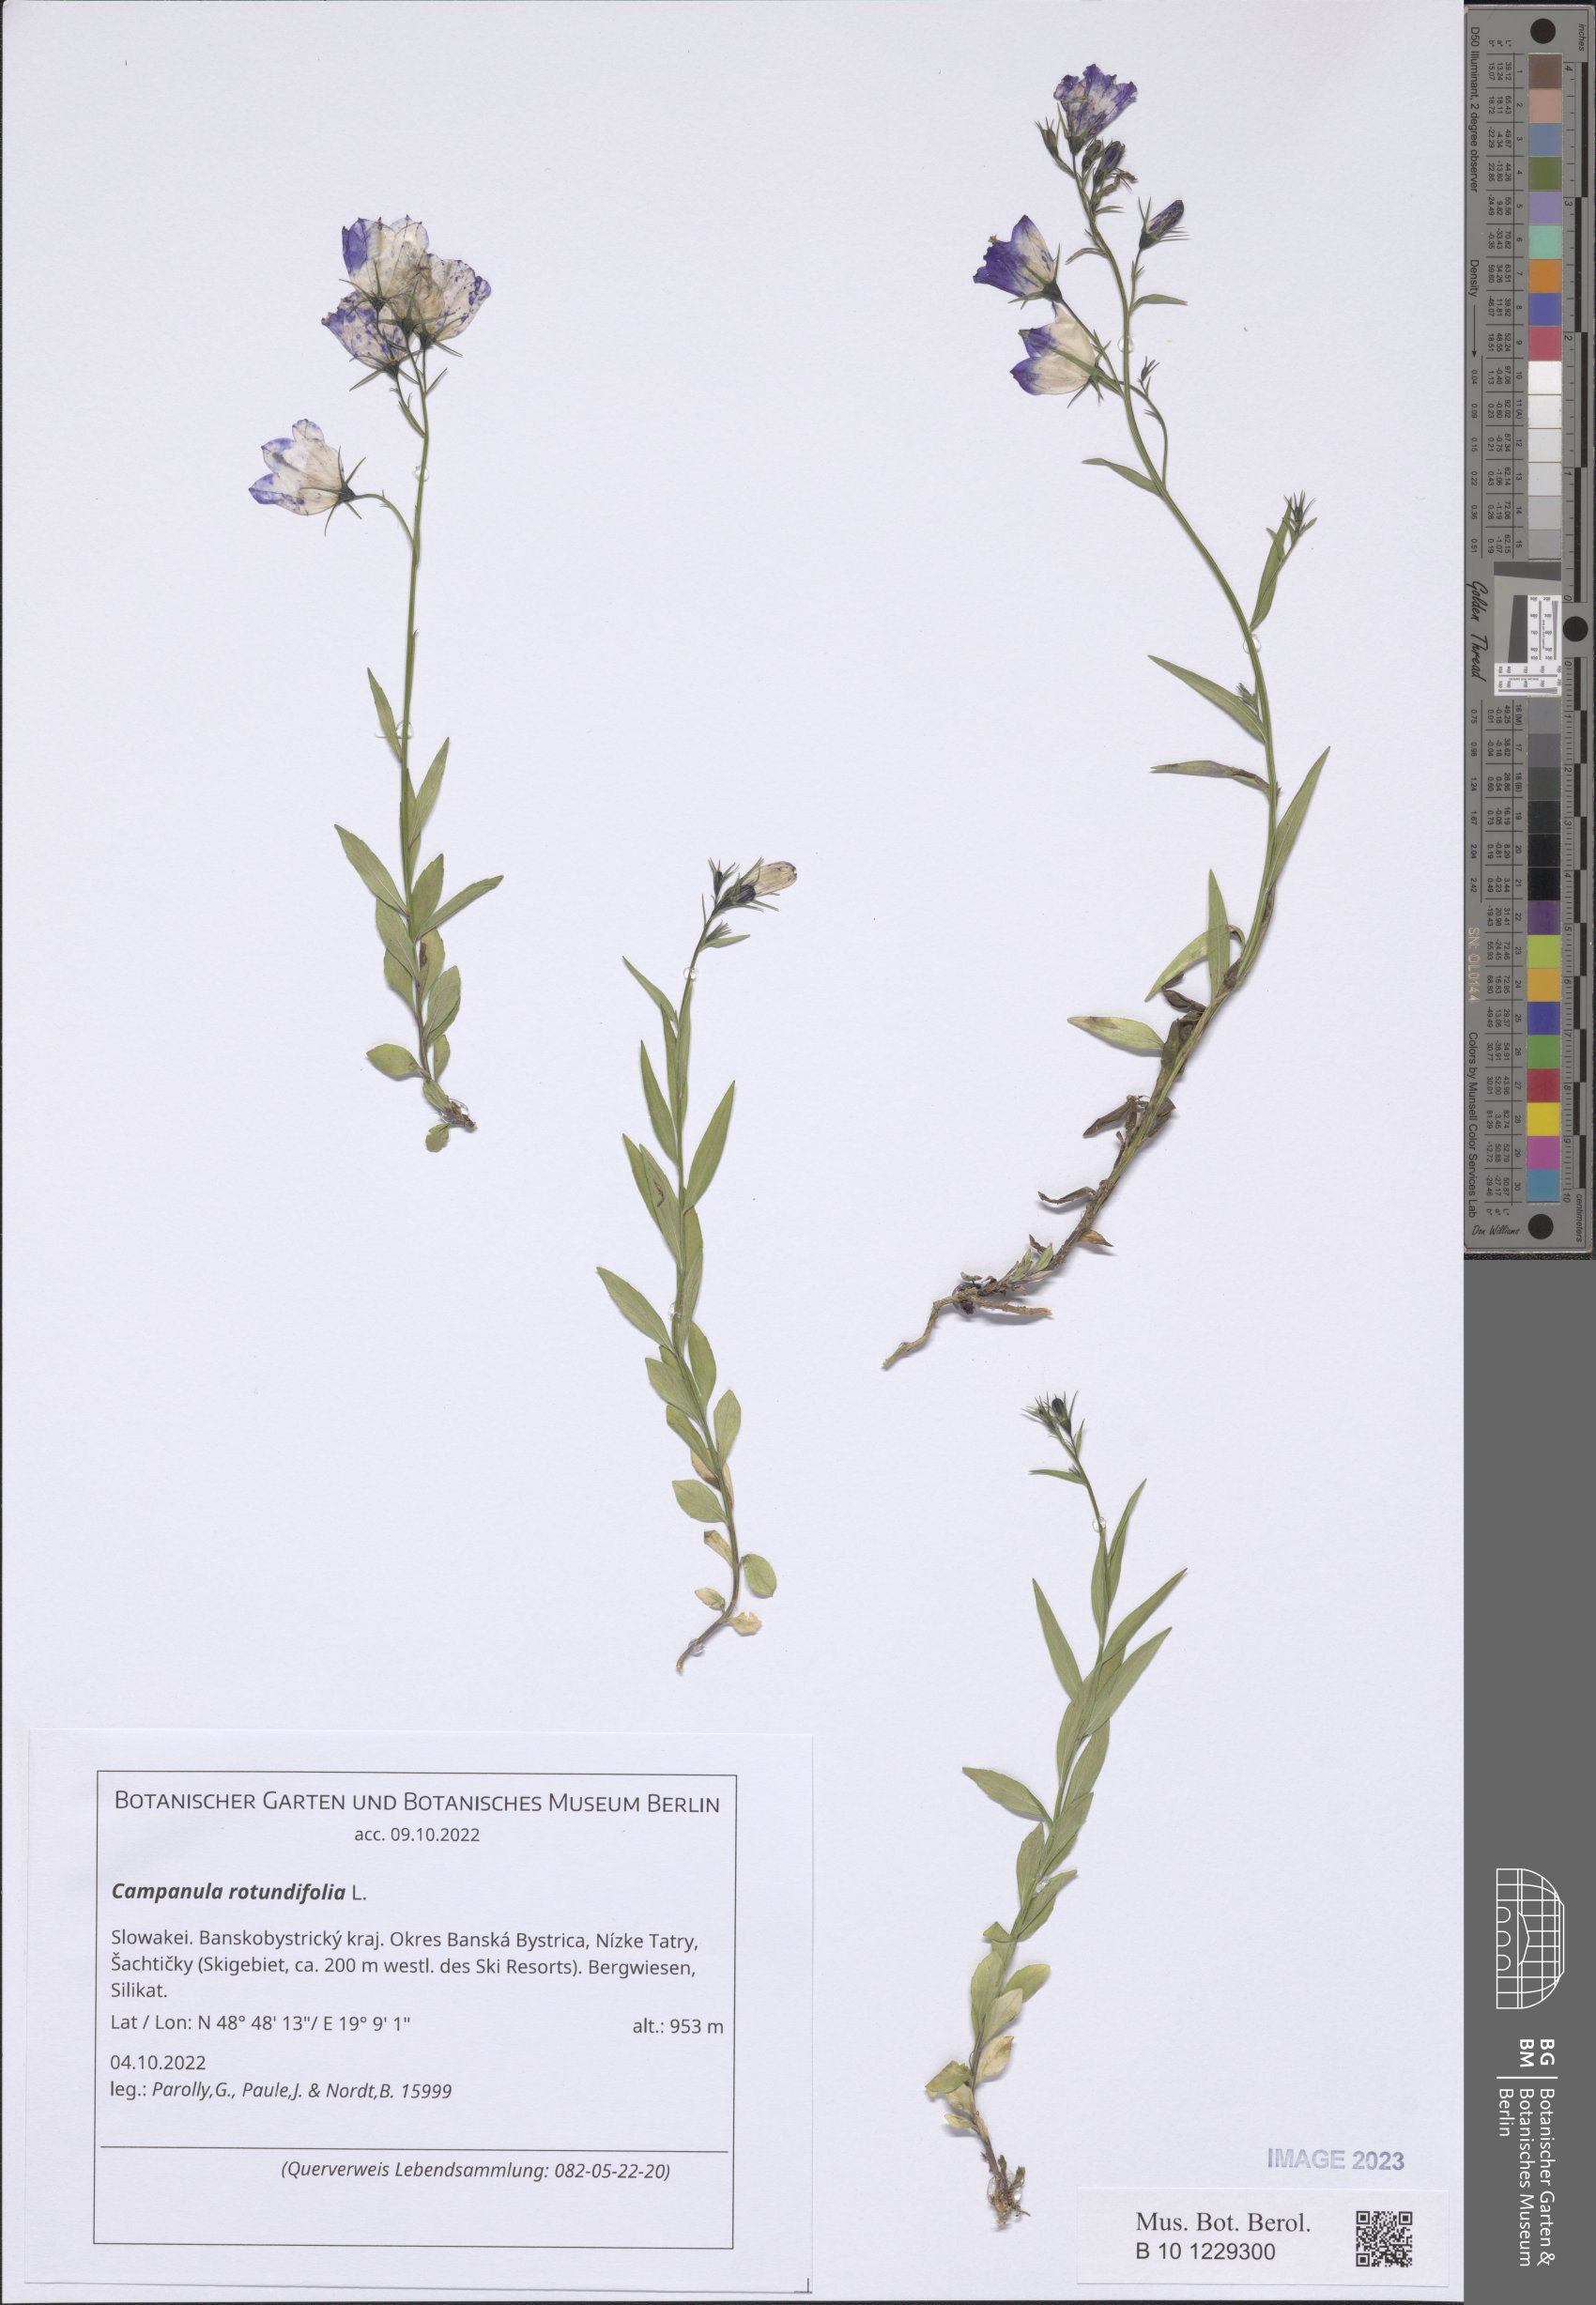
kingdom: Plantae
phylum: Tracheophyta
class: Magnoliopsida
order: Asterales
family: Campanulaceae
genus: Campanula
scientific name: Campanula rotundifolia
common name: Harebell
